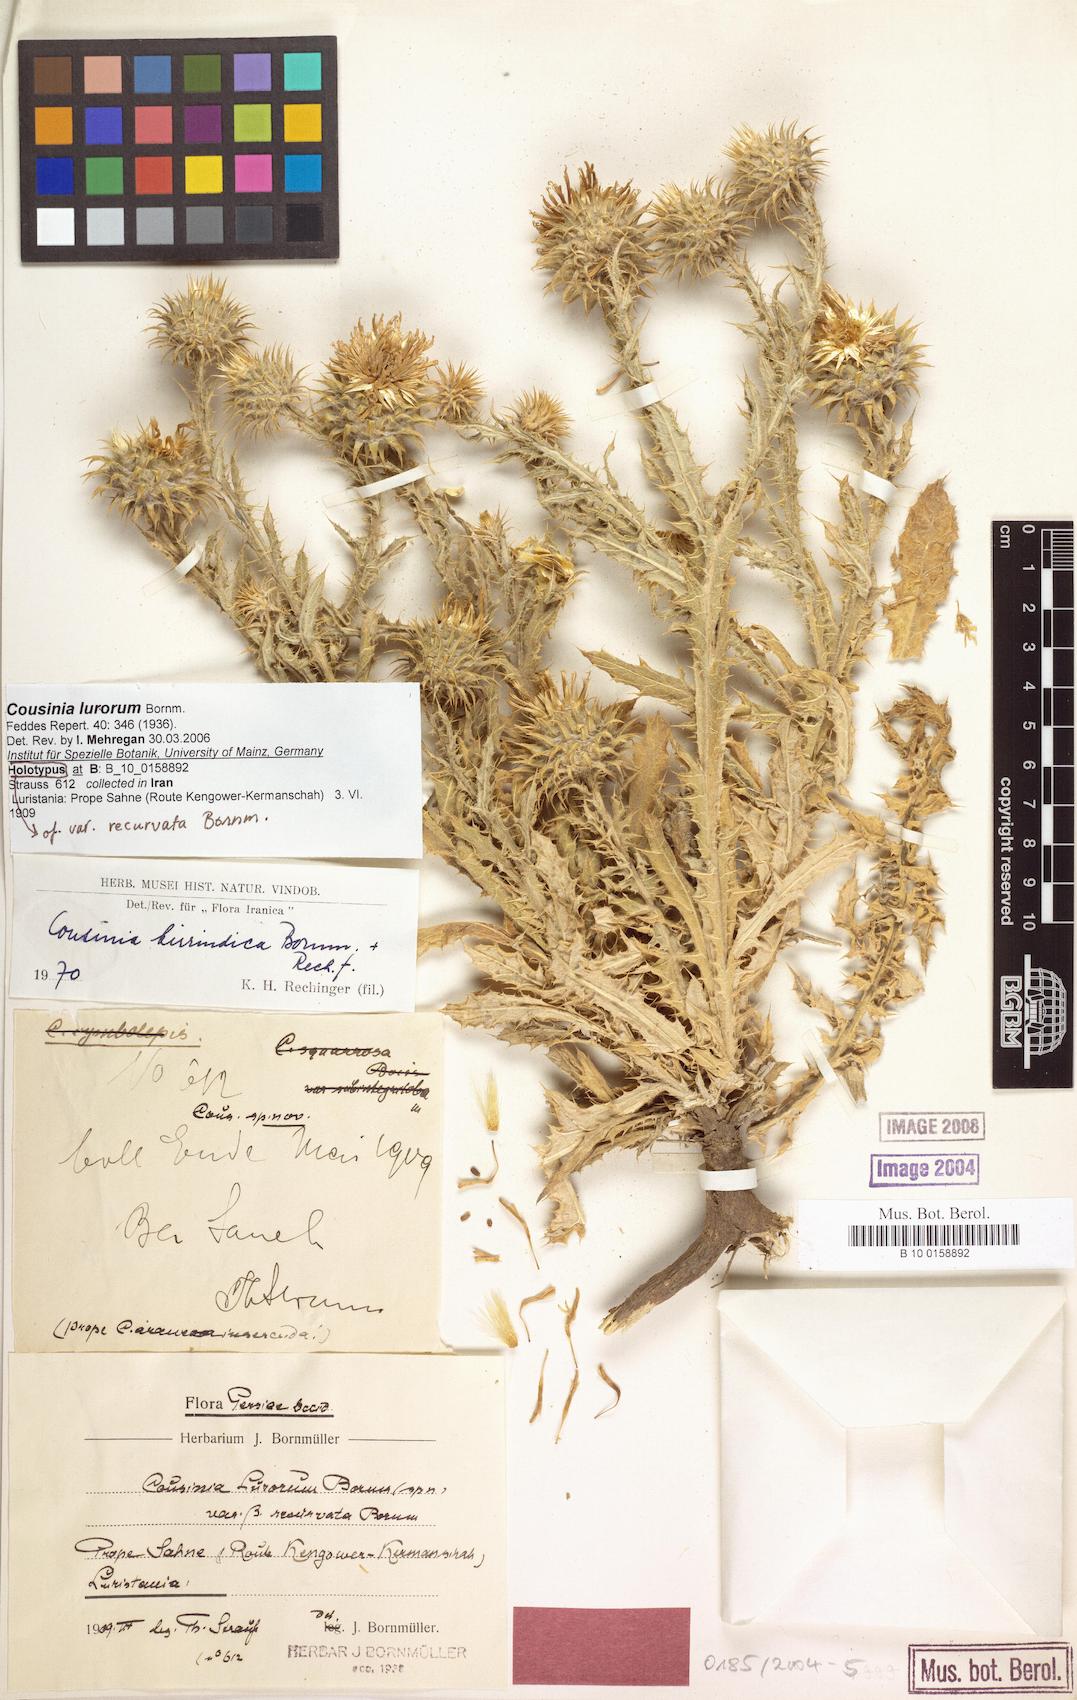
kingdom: Plantae
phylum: Tracheophyta
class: Magnoliopsida
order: Asterales
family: Asteraceae
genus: Cousinia
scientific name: Cousinia lurorum
